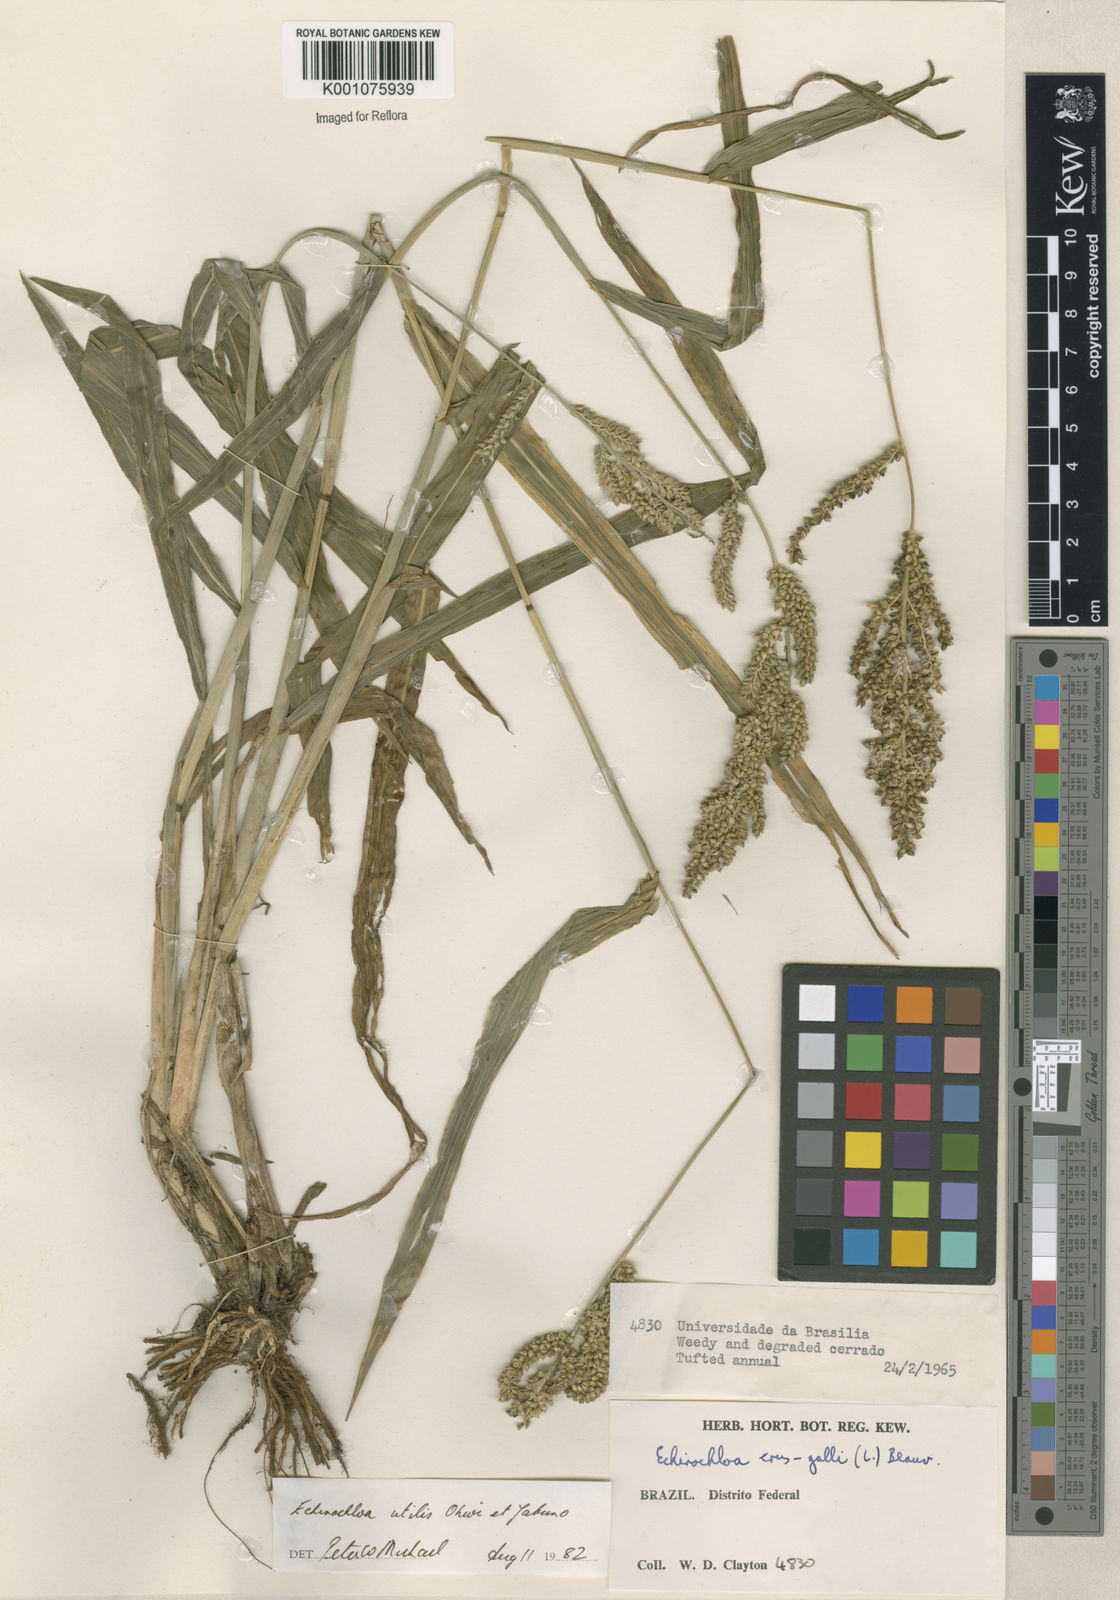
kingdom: Plantae
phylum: Tracheophyta
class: Liliopsida
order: Poales
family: Poaceae
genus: Echinochloa
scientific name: Echinochloa crus-galli
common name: Cockspur
